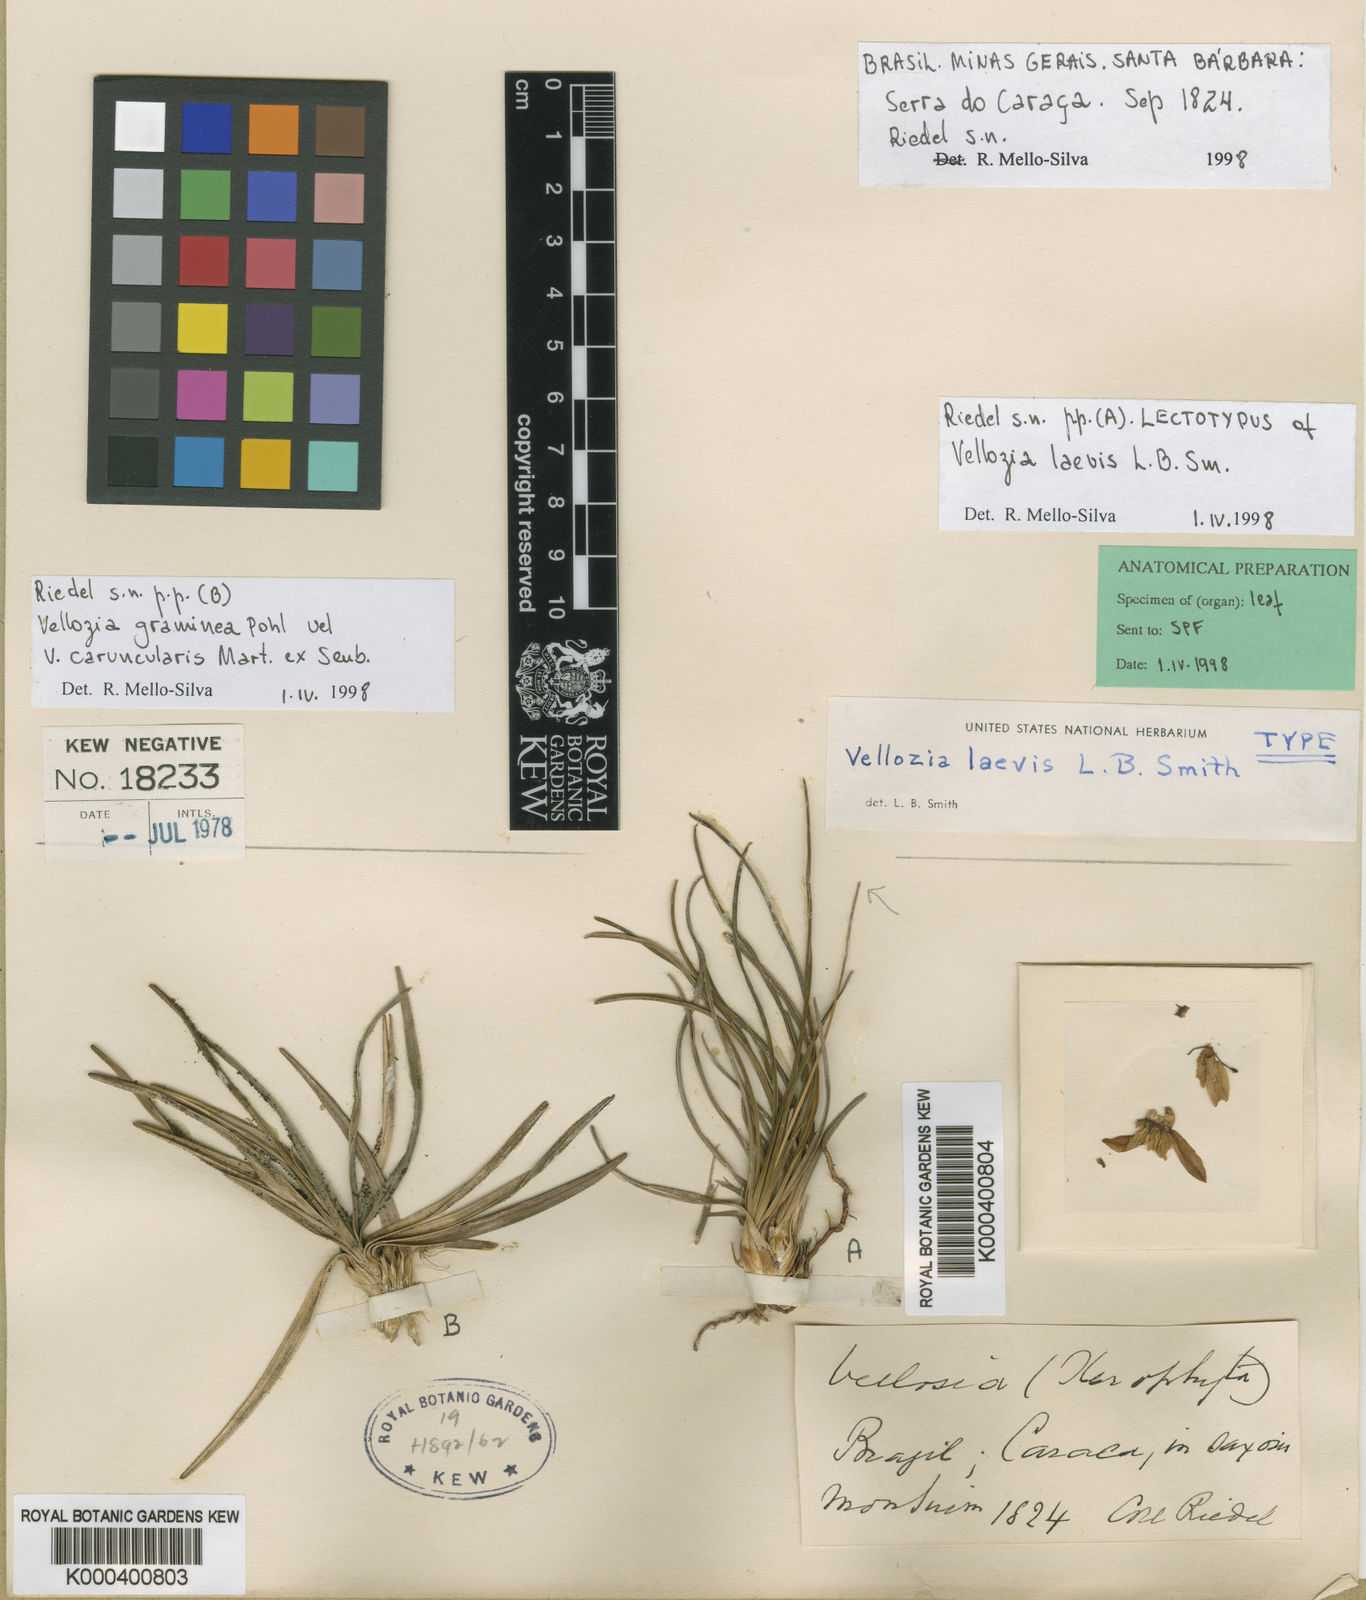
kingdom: Plantae
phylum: Tracheophyta
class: Liliopsida
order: Pandanales
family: Velloziaceae
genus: Vellozia
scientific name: Vellozia laevis
